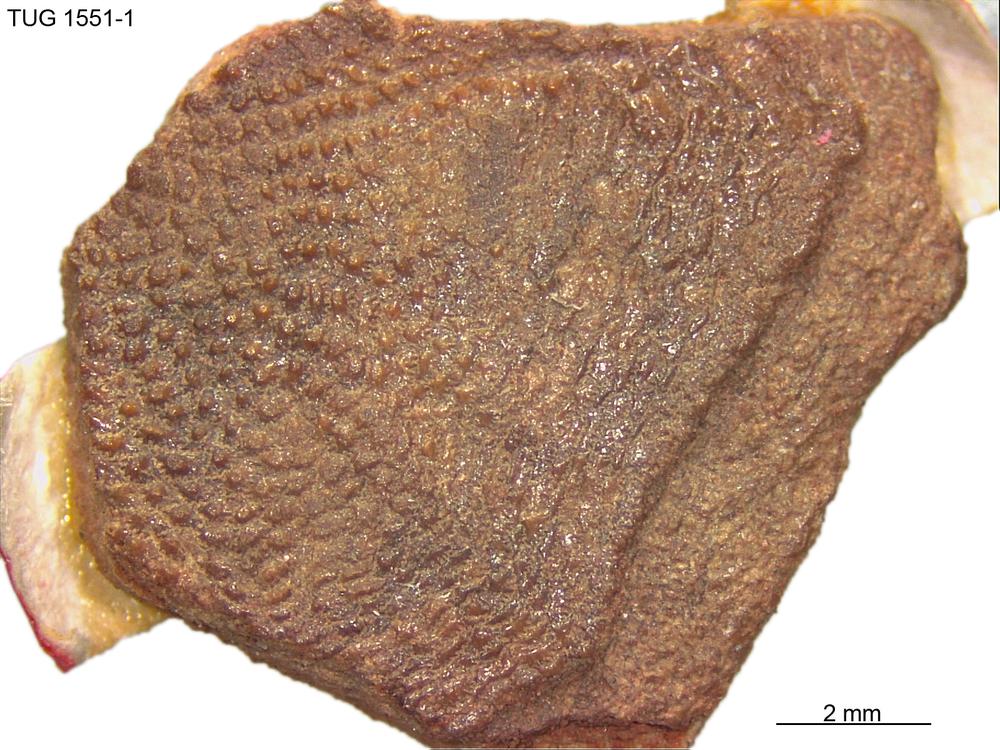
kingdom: Animalia
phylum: Chordata
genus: Pycnolepis
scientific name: Pycnolepis
